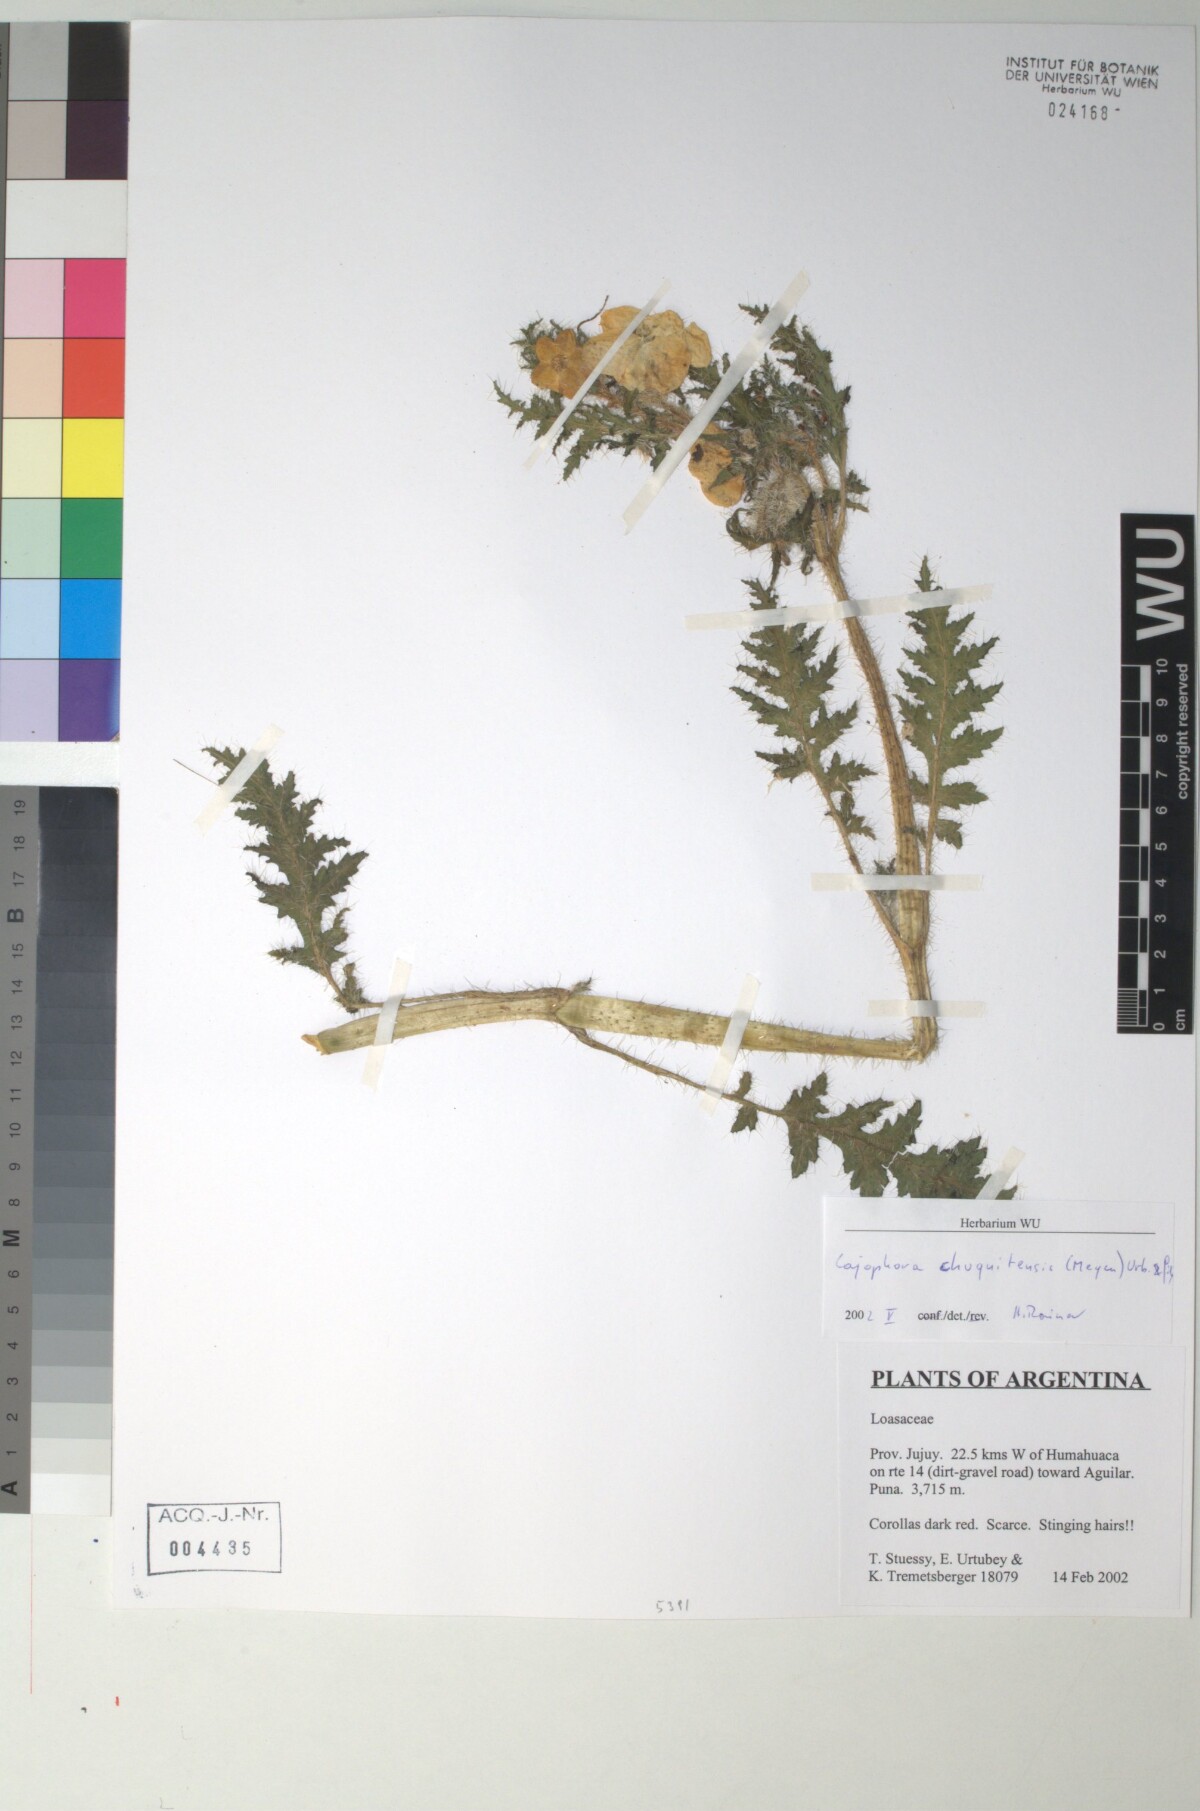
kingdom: Plantae
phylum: Tracheophyta
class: Magnoliopsida
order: Cornales
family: Loasaceae
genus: Caiophora
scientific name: Caiophora chuquitensis
